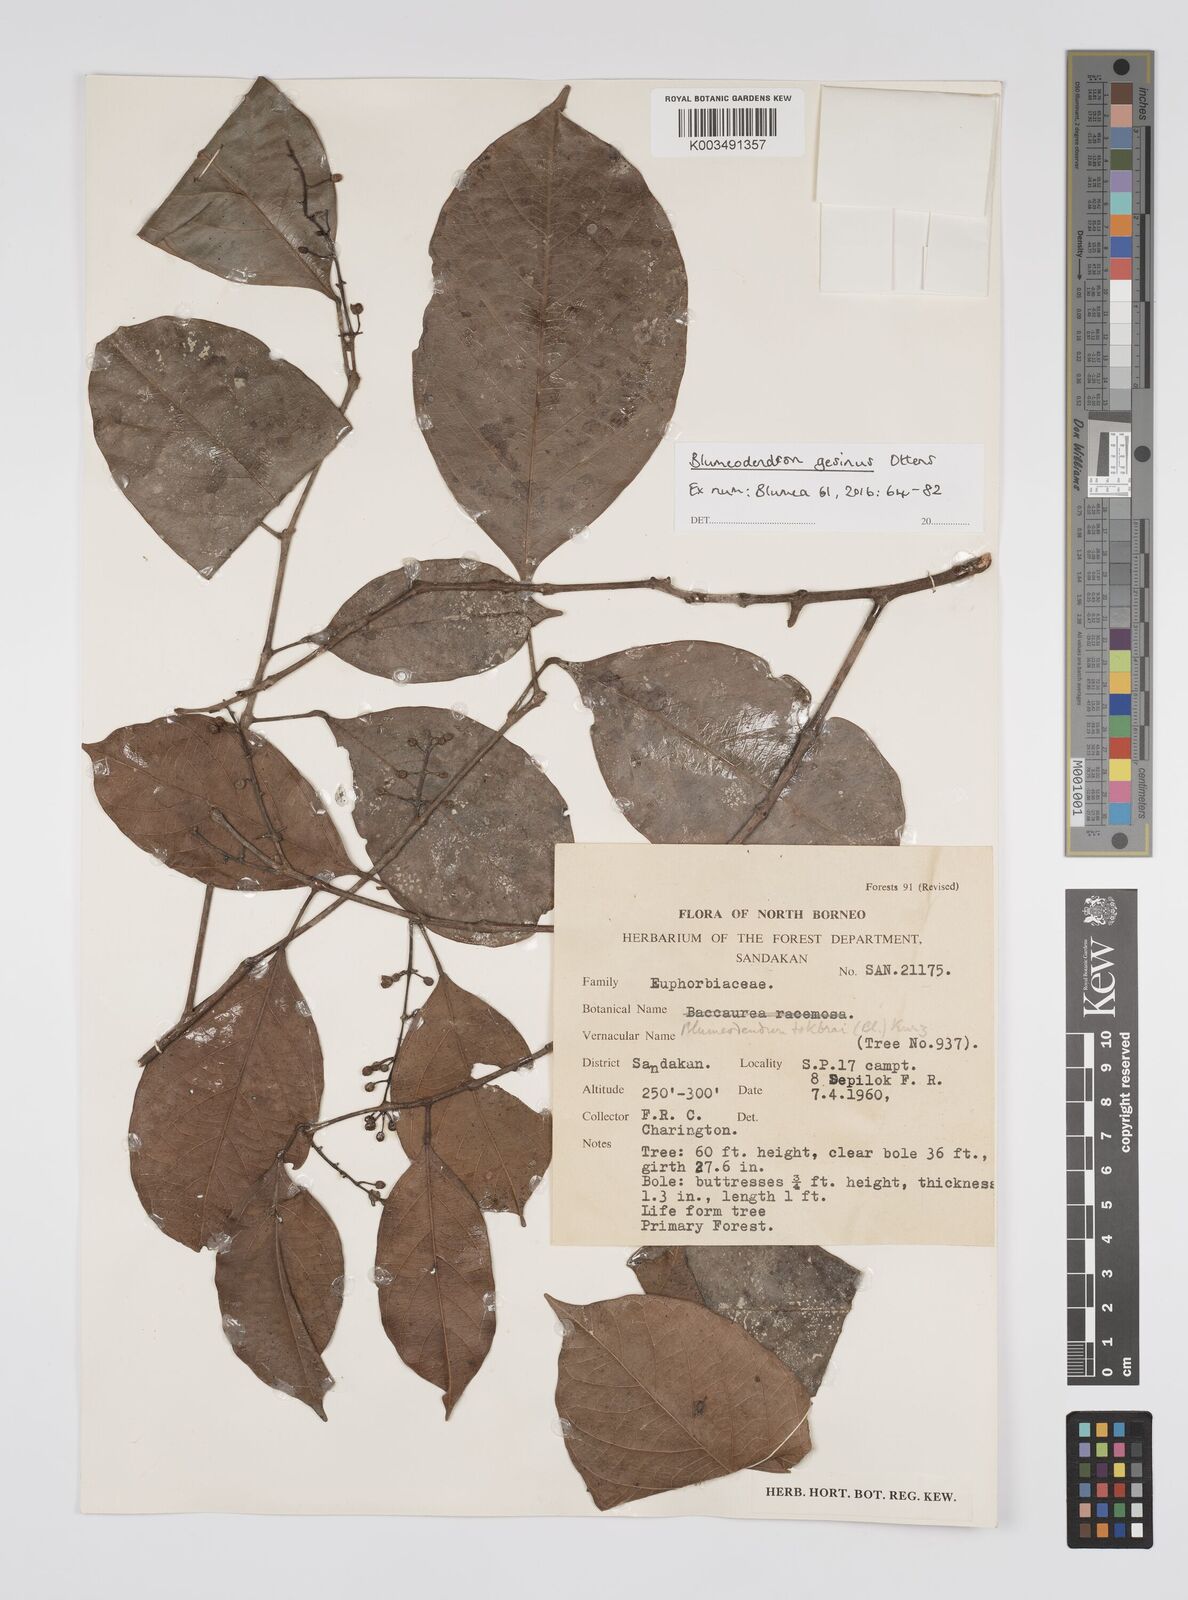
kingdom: Plantae
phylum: Tracheophyta
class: Magnoliopsida
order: Malpighiales
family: Euphorbiaceae
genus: Blumeodendron
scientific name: Blumeodendron gesinus
